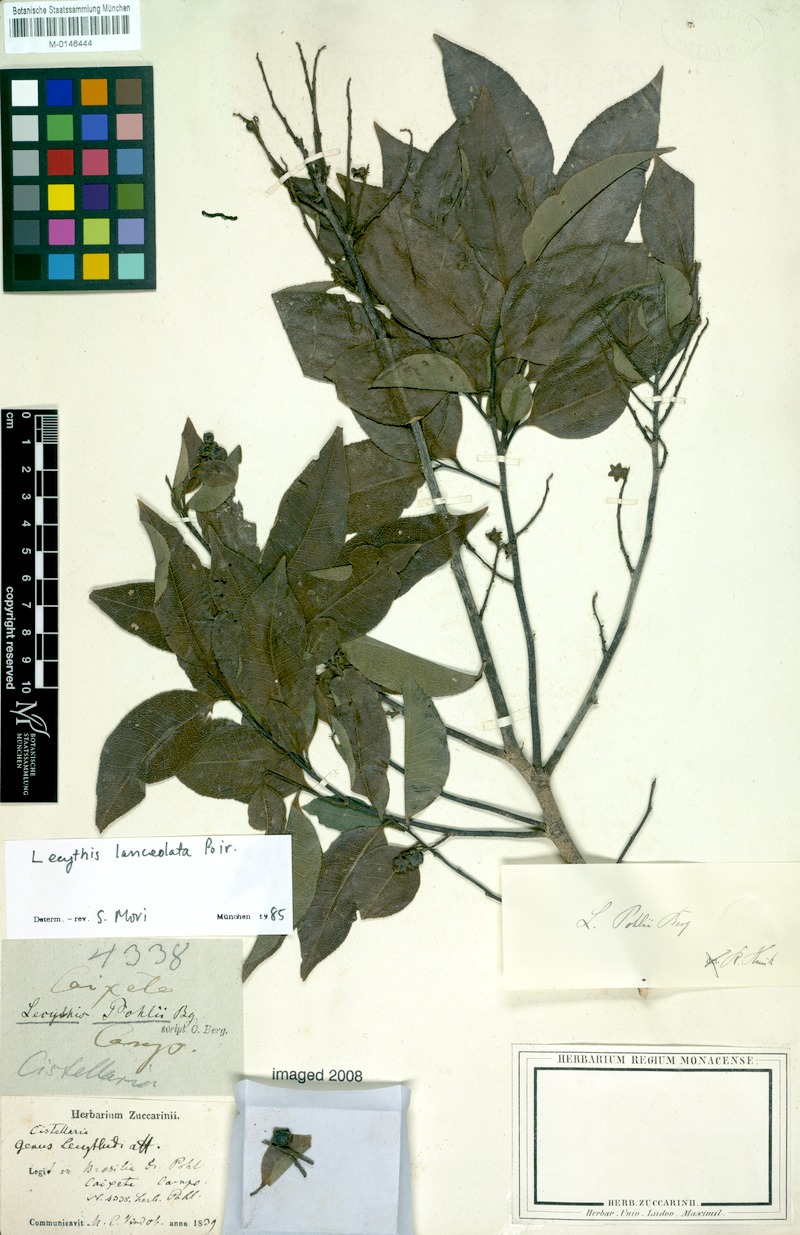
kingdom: Plantae
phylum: Tracheophyta
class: Magnoliopsida
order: Ericales
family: Lecythidaceae
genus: Lecythis
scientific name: Lecythis lanceolata
